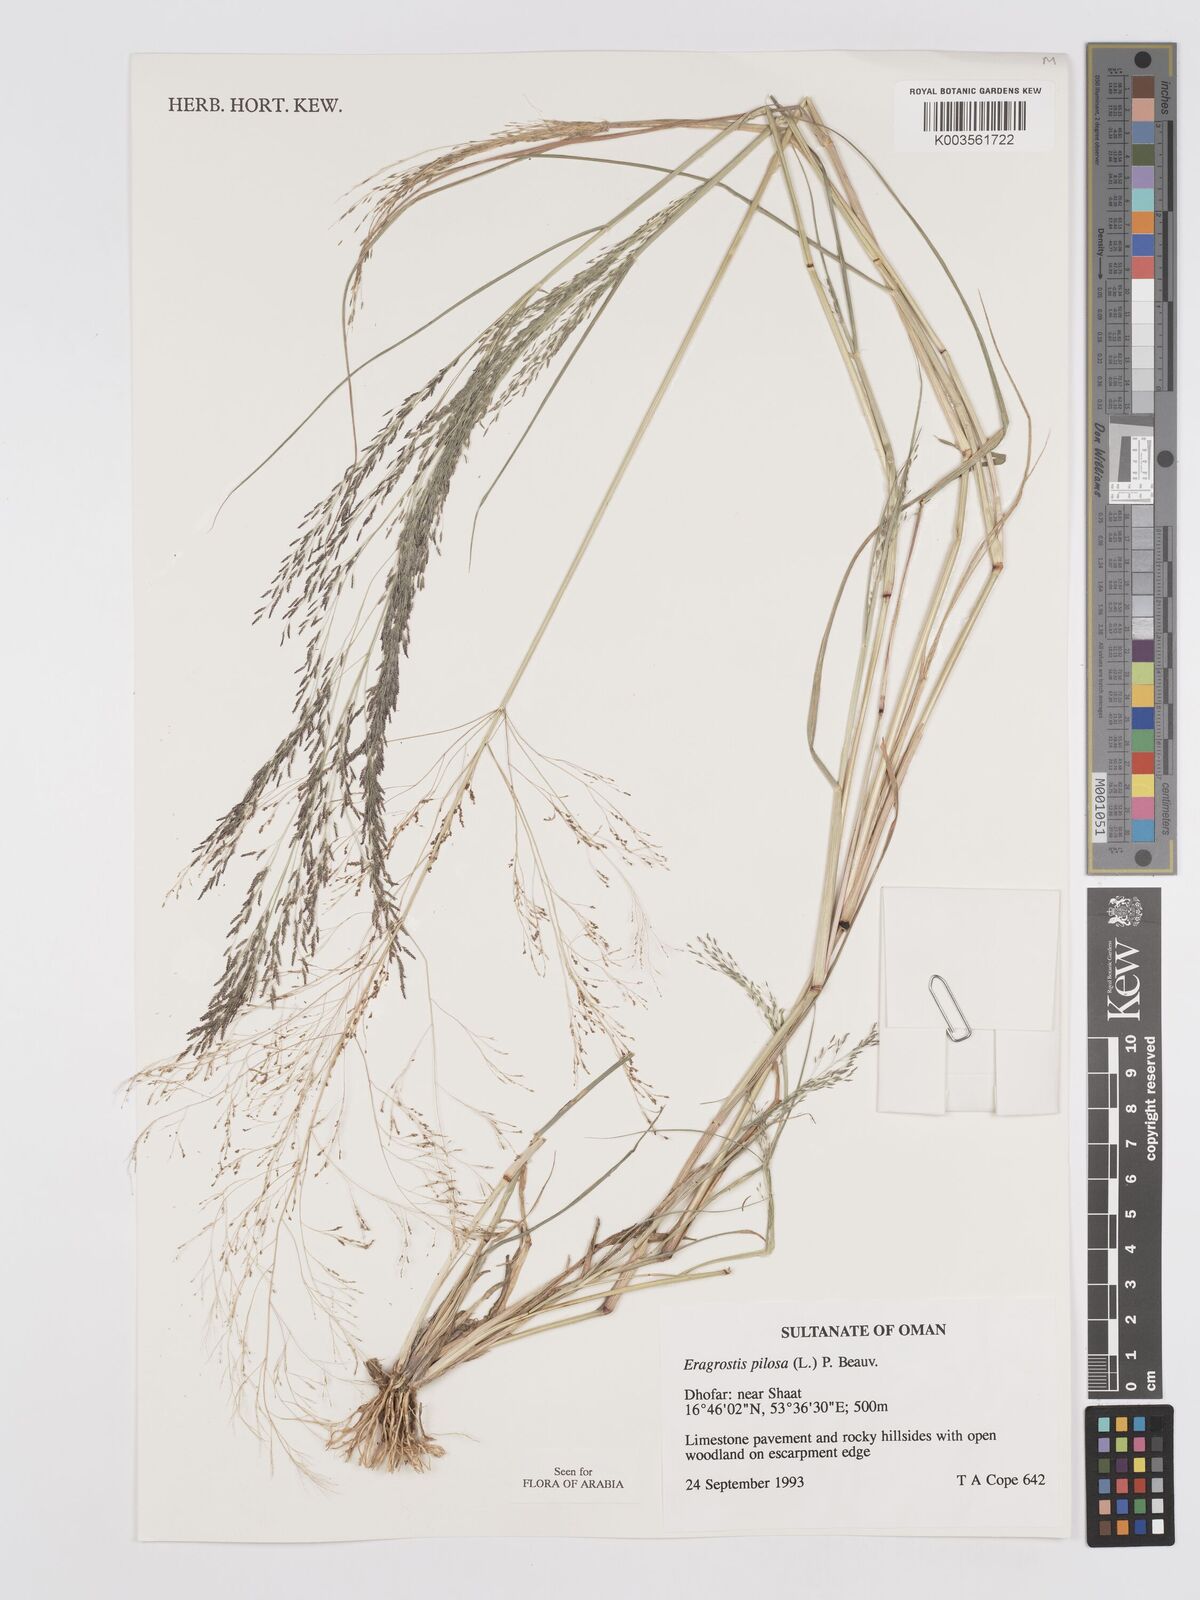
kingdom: Plantae
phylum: Tracheophyta
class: Liliopsida
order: Poales
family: Poaceae
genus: Eragrostis
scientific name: Eragrostis pilosa
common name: Indian lovegrass
